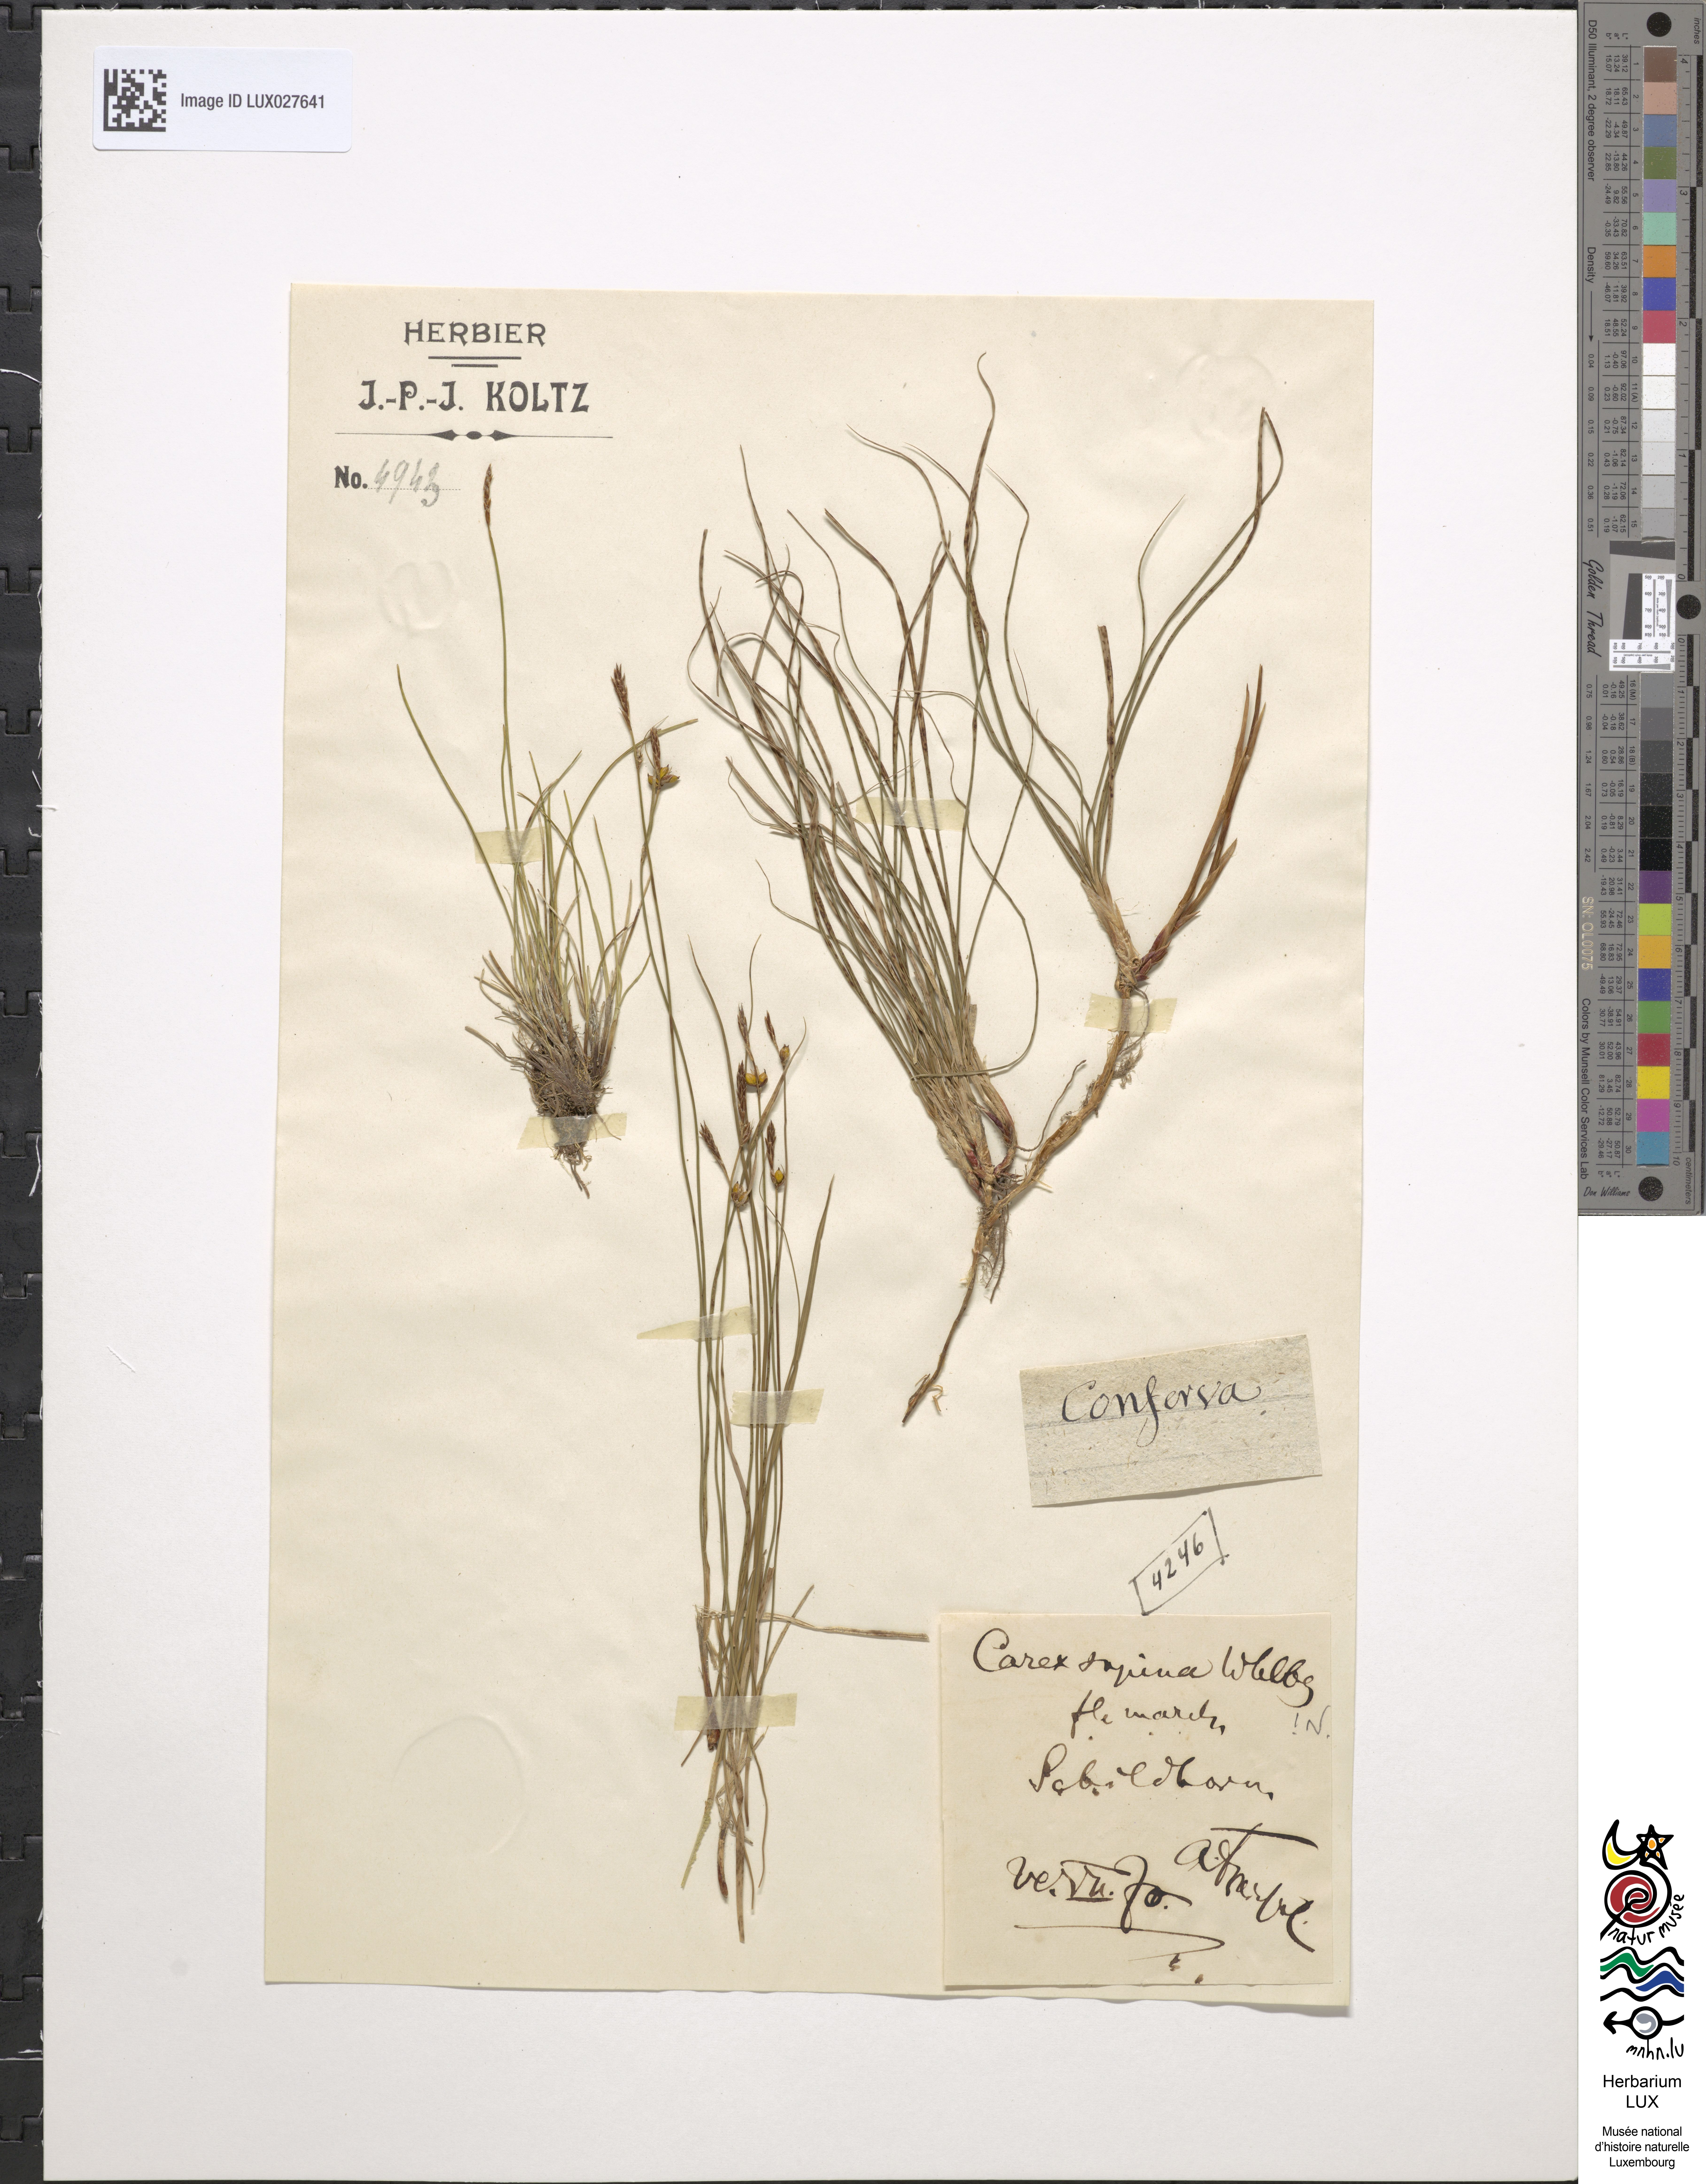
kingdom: Plantae
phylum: Tracheophyta
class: Liliopsida
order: Poales
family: Cyperaceae
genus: Carex
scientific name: Carex supina
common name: Lying-back sedge
